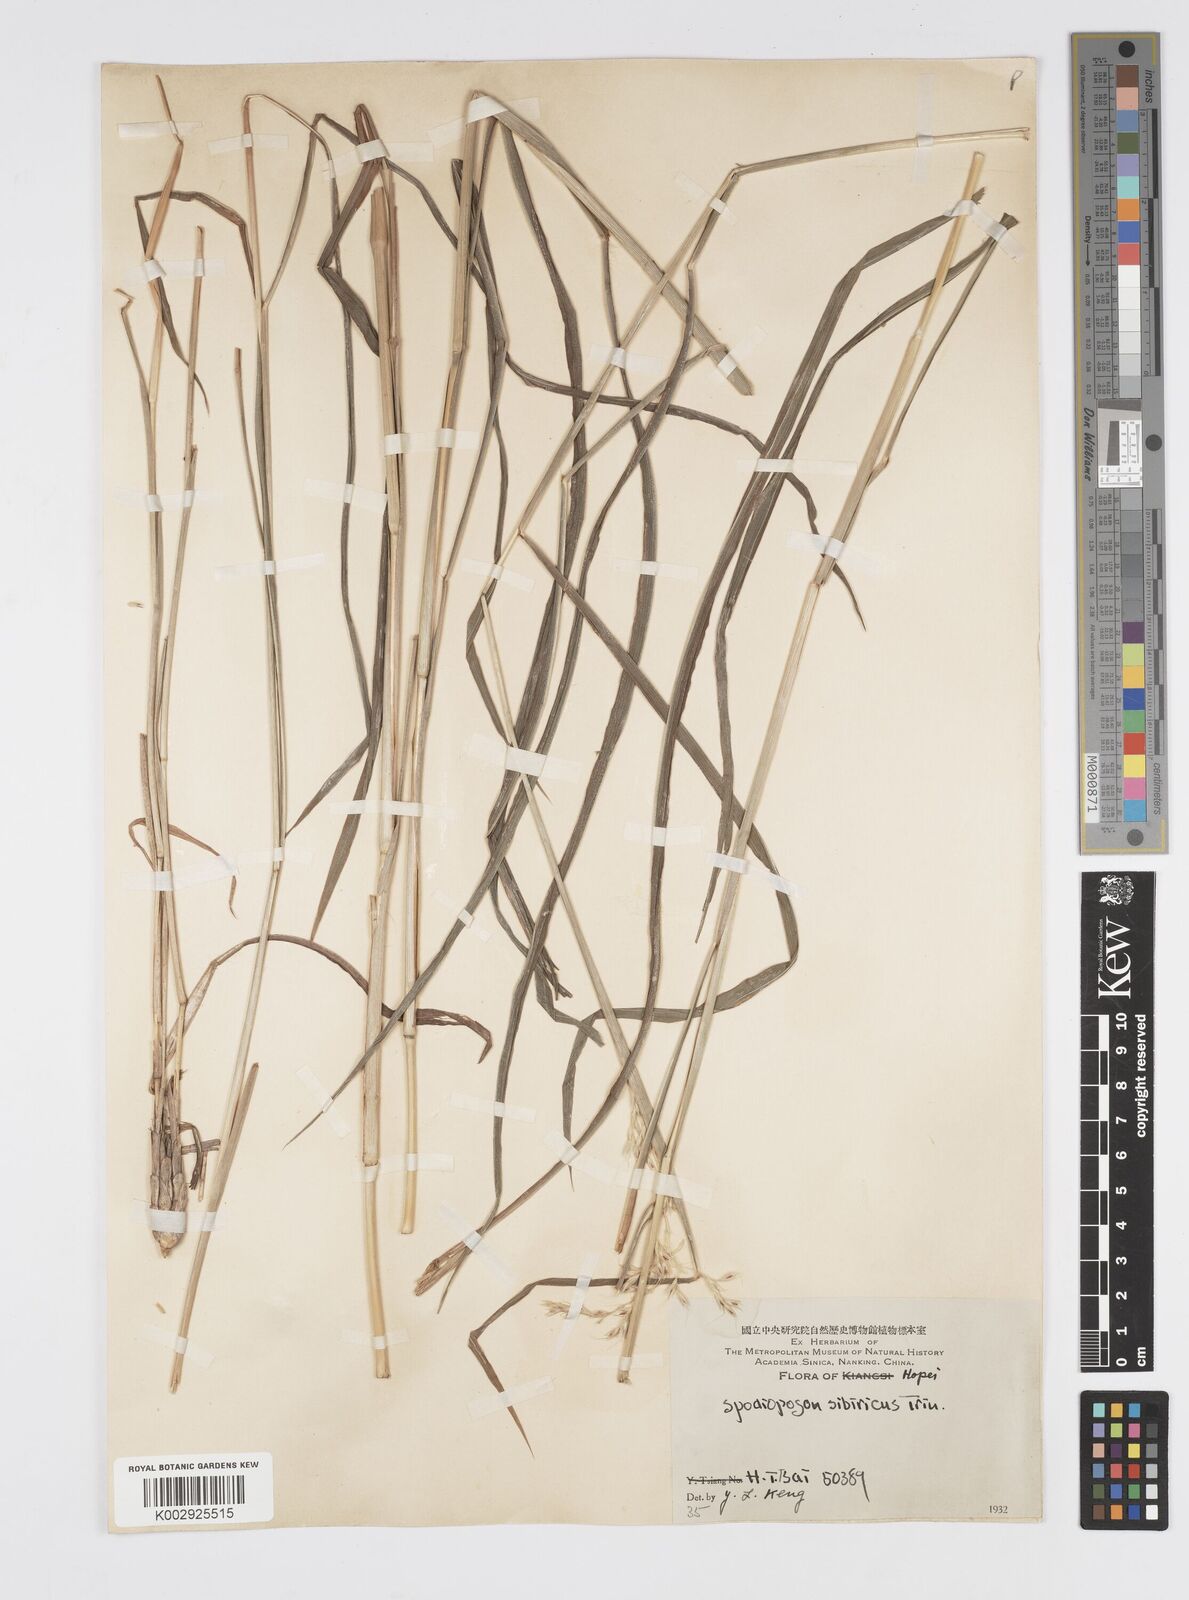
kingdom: Plantae
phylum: Tracheophyta
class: Liliopsida
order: Poales
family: Poaceae
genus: Spodiopogon
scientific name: Spodiopogon sibiricus
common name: Siberian graybeard
